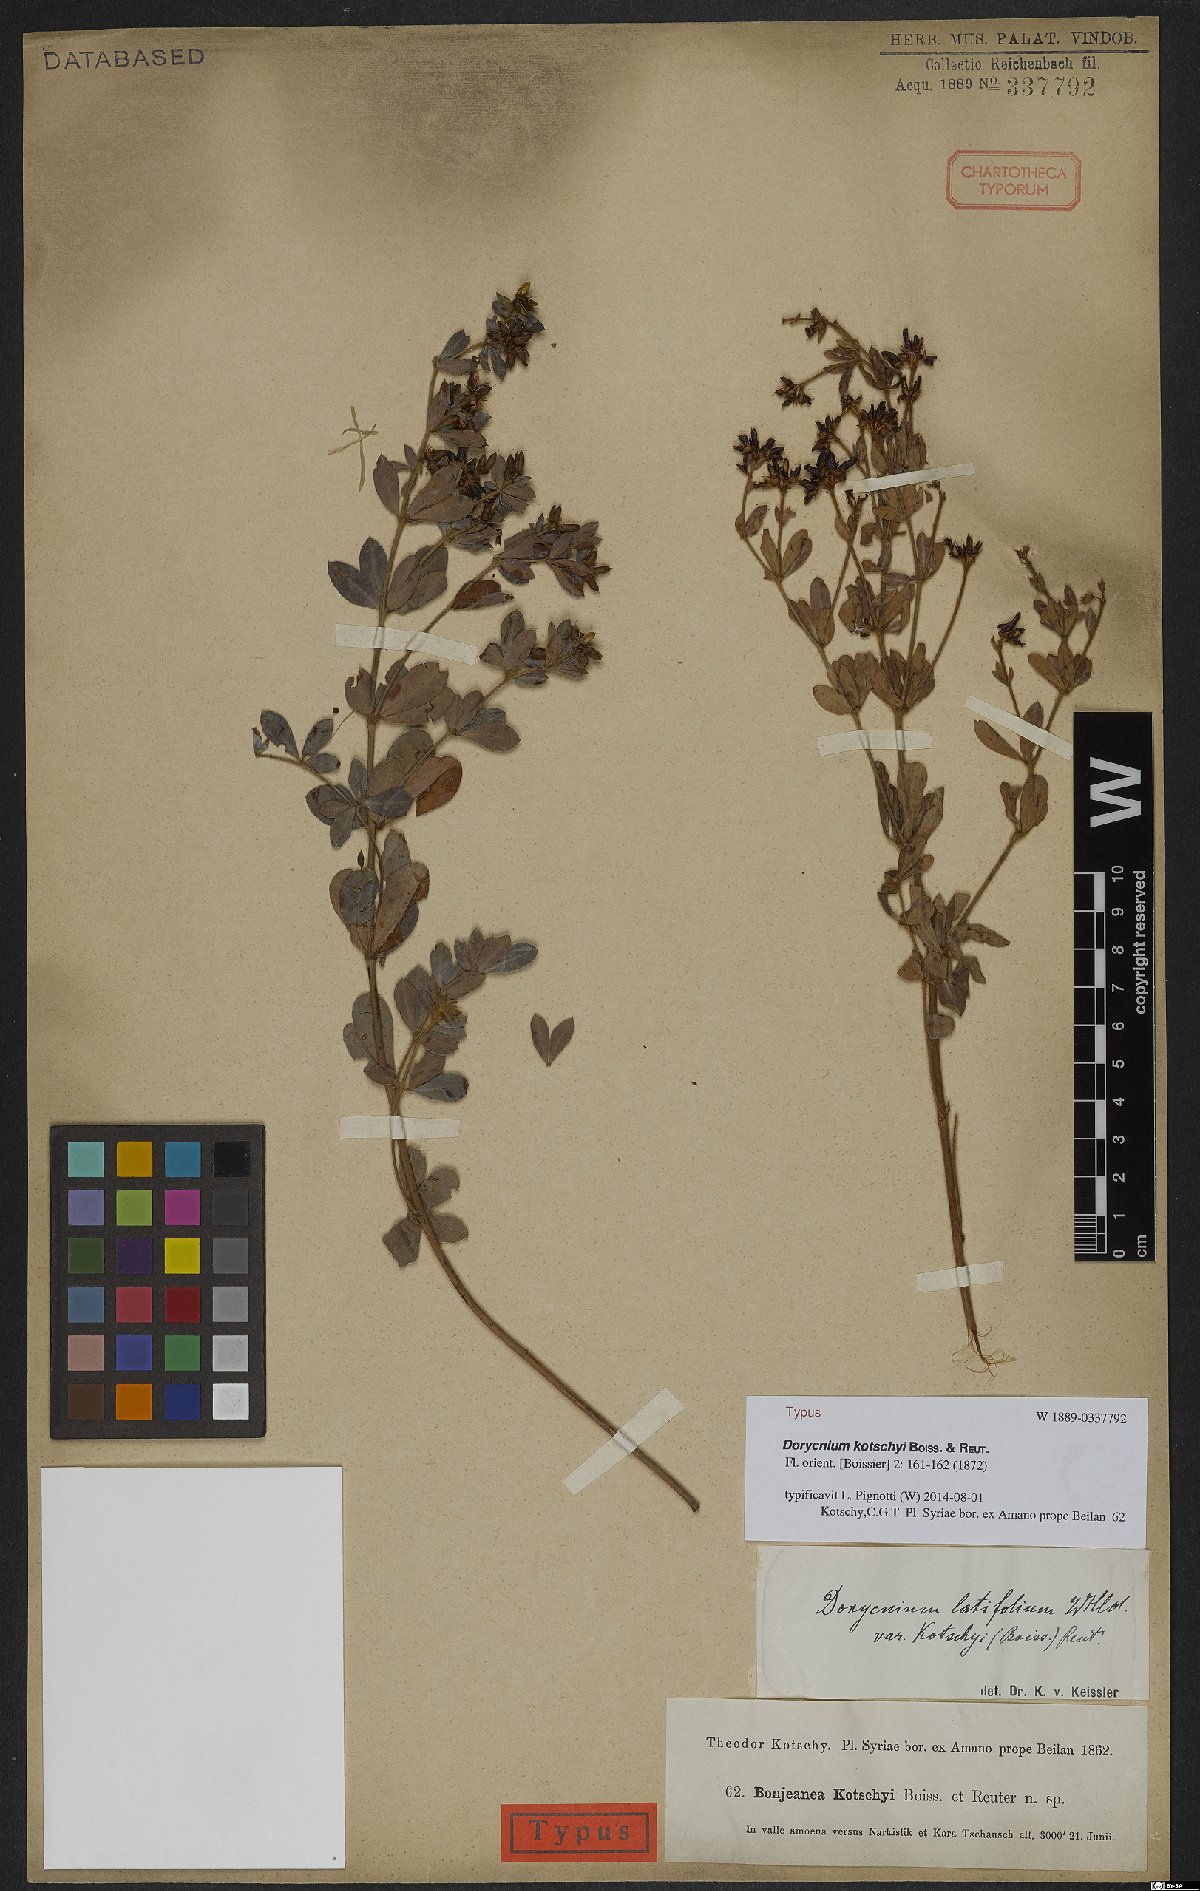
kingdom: Plantae
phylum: Tracheophyta
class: Magnoliopsida
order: Fabales
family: Fabaceae
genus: Lotus
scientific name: Lotus graecus
